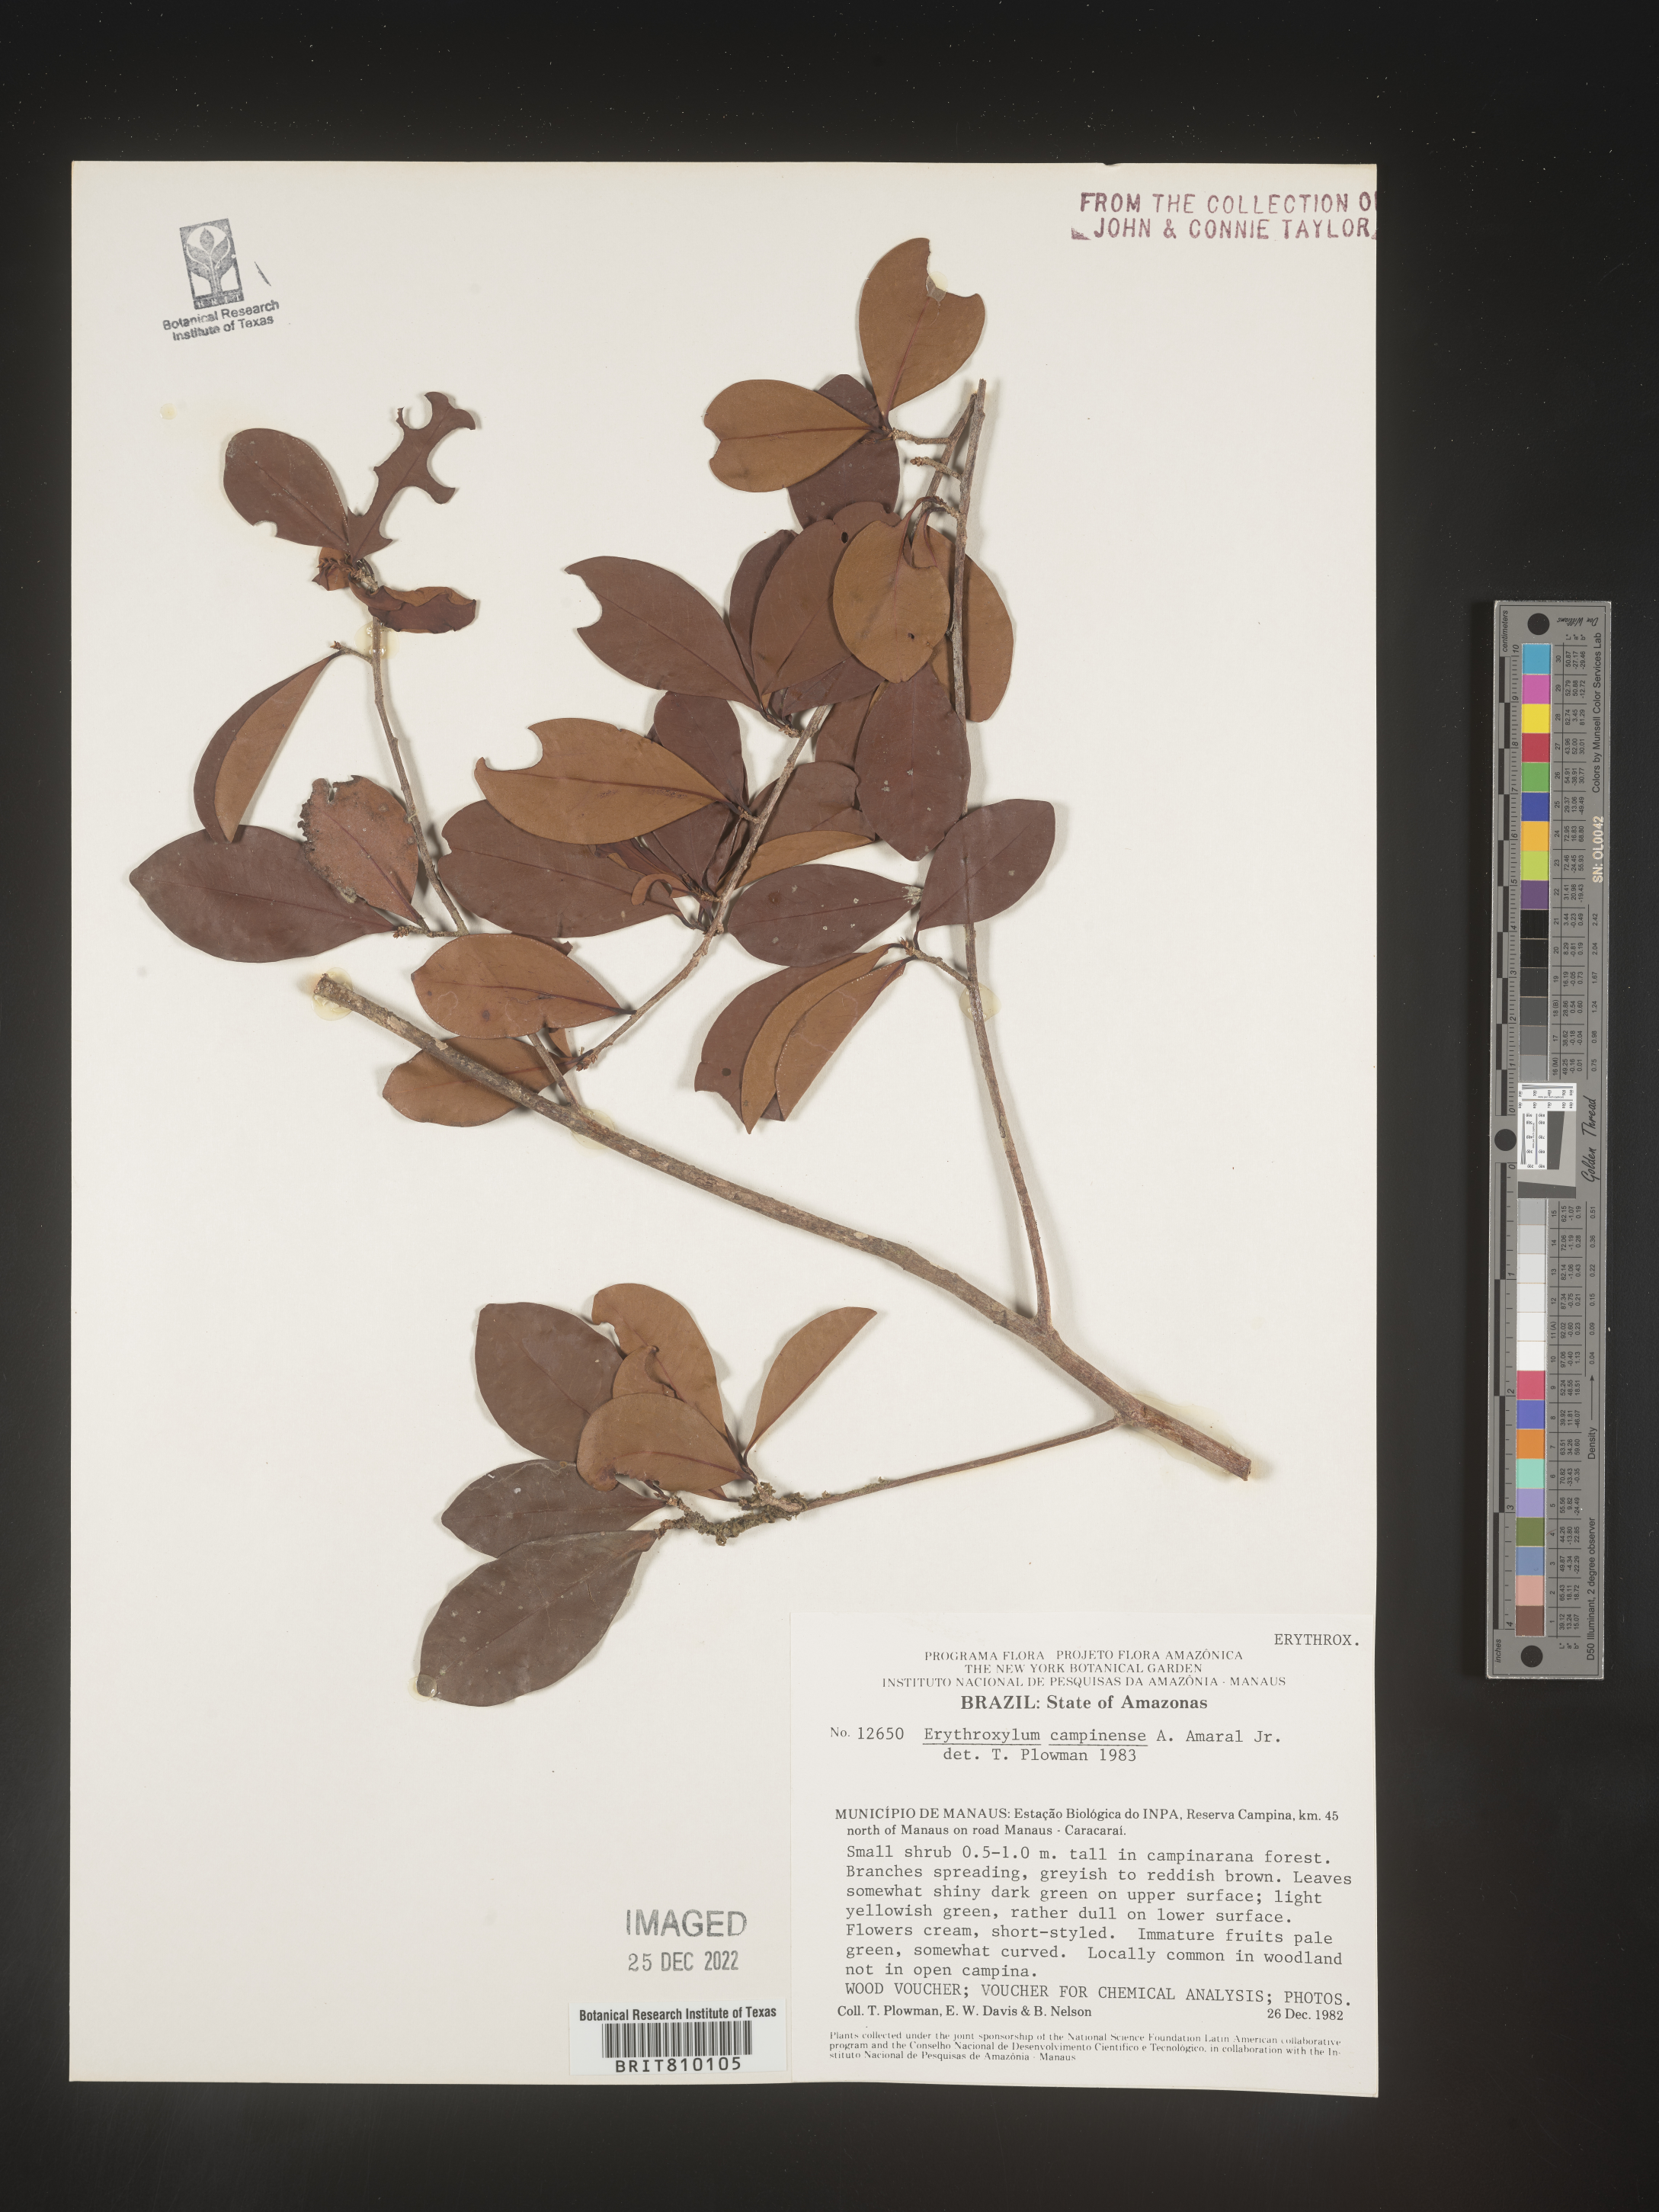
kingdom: Plantae
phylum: Tracheophyta
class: Magnoliopsida
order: Malpighiales
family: Erythroxylaceae
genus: Erythroxylum
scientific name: Erythroxylum
